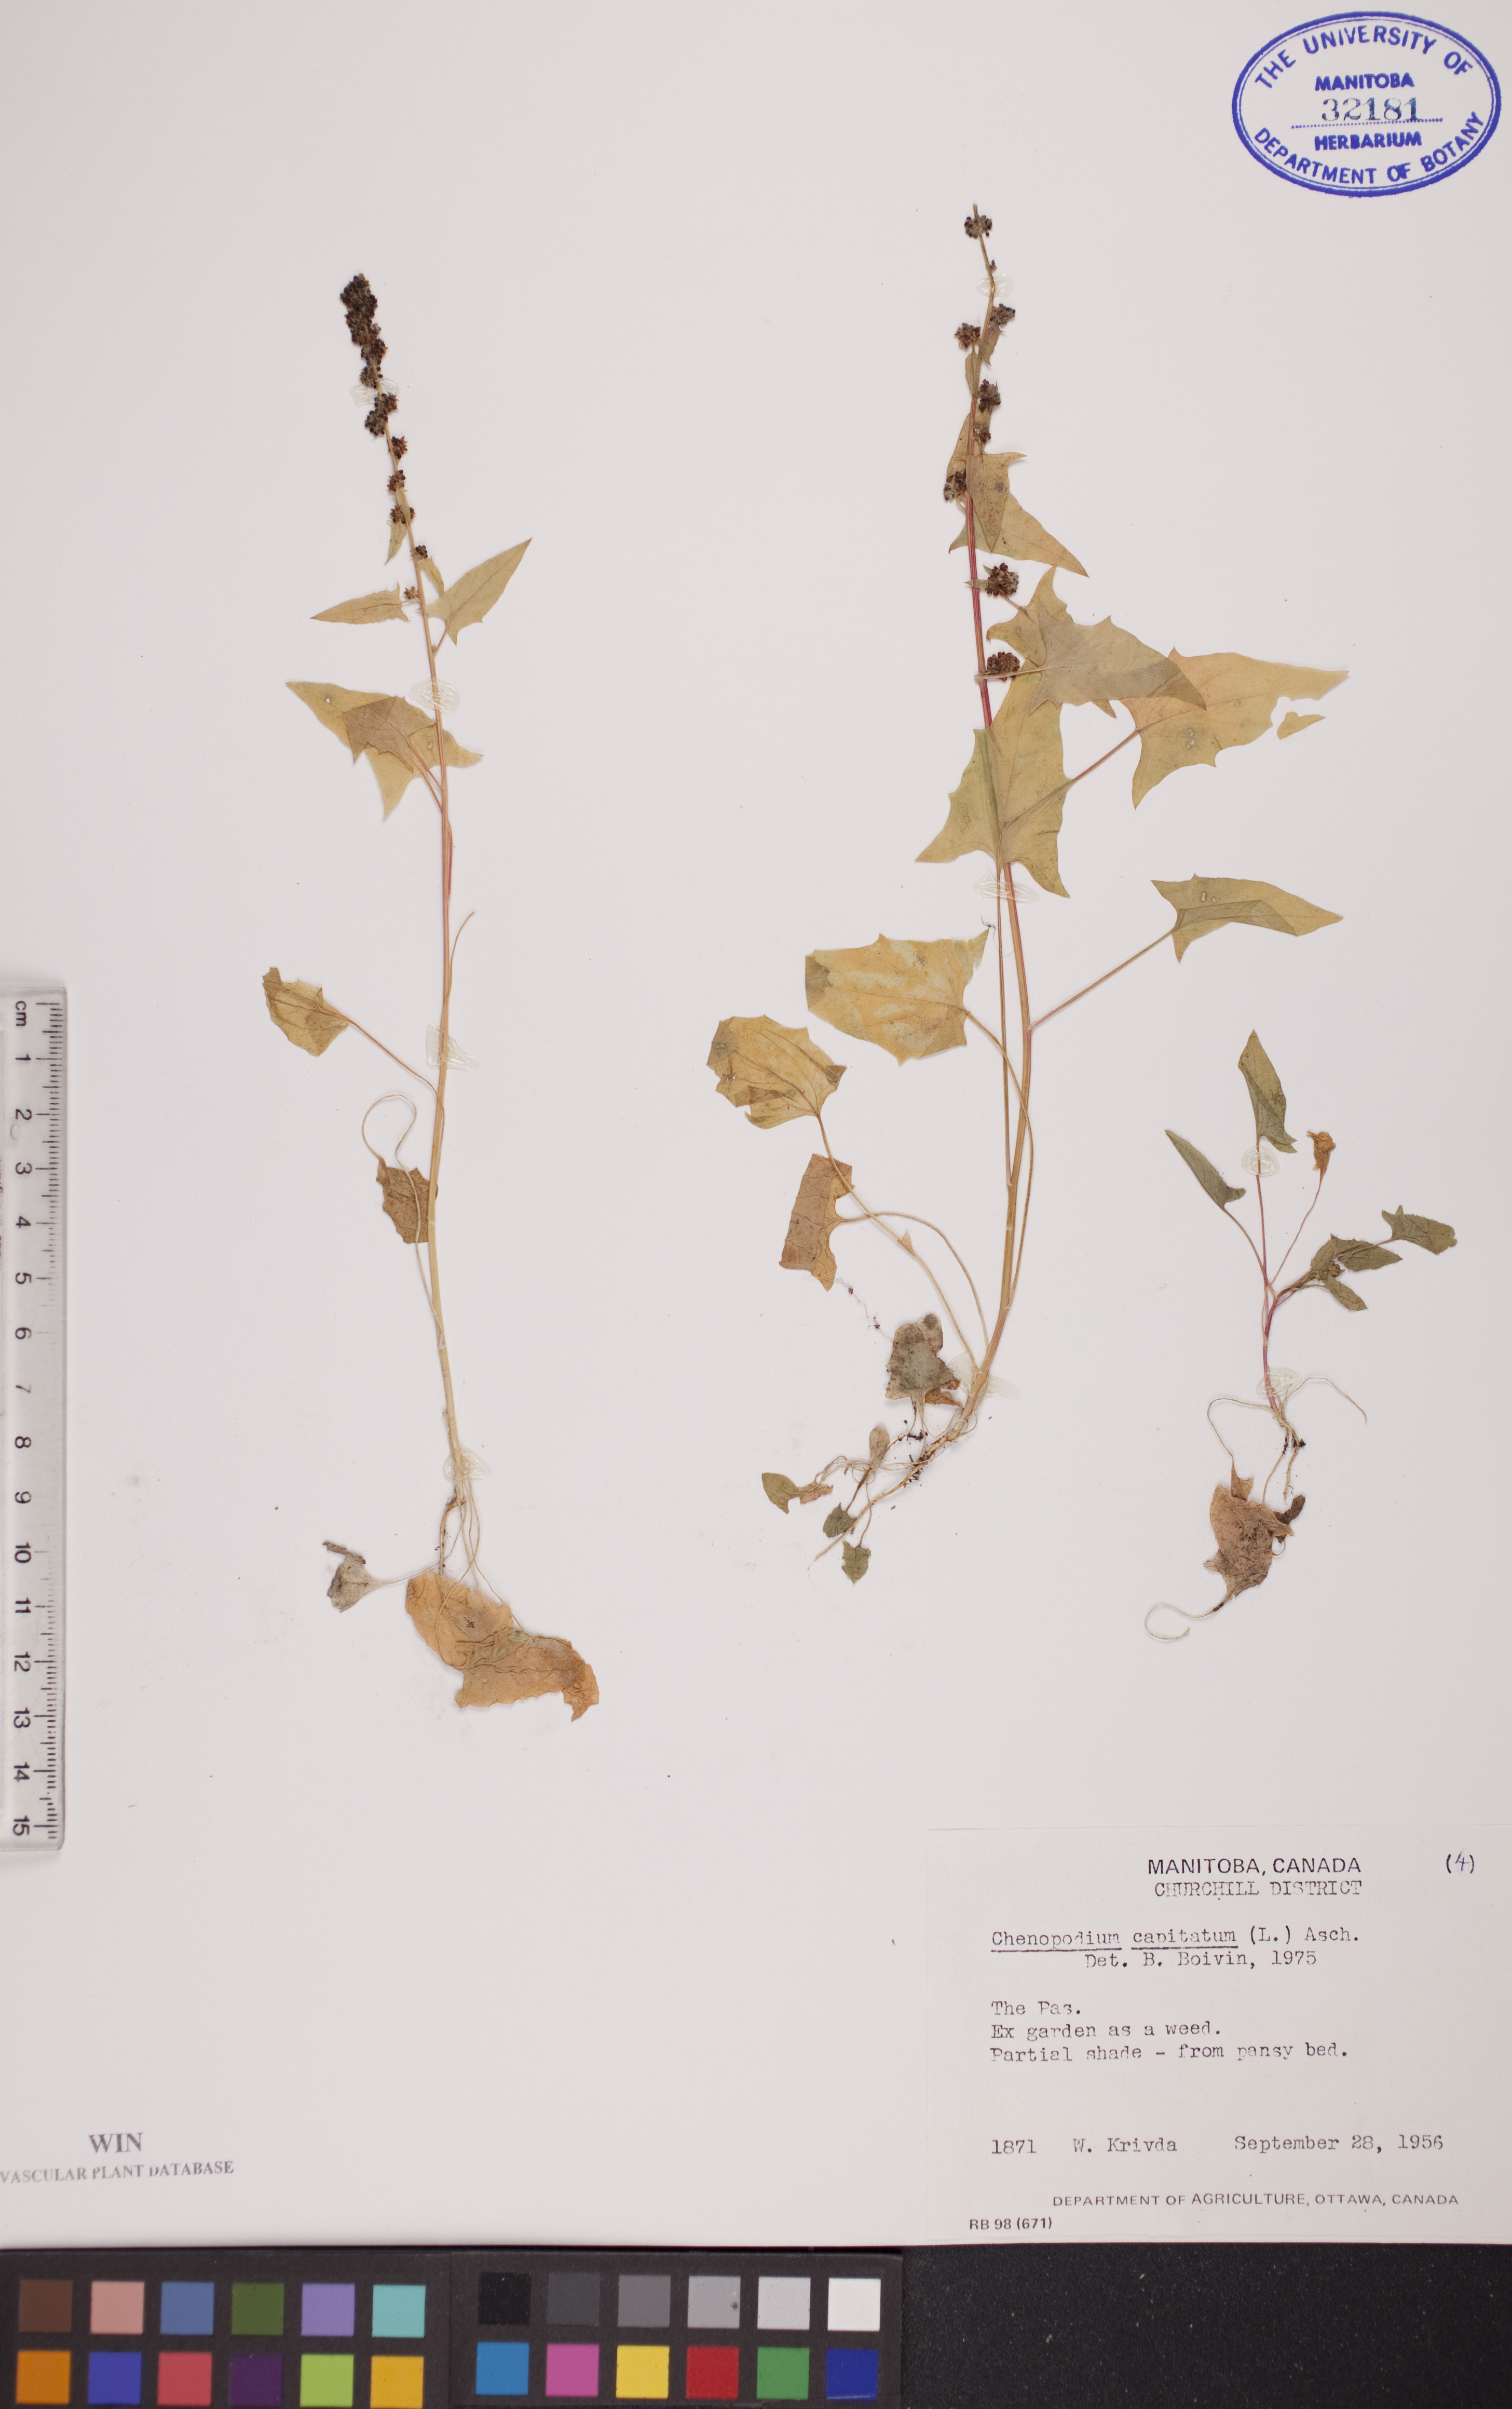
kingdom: Plantae
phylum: Tracheophyta
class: Magnoliopsida
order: Caryophyllales
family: Amaranthaceae
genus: Blitum
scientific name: Blitum capitatum
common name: Strawberry-blight
